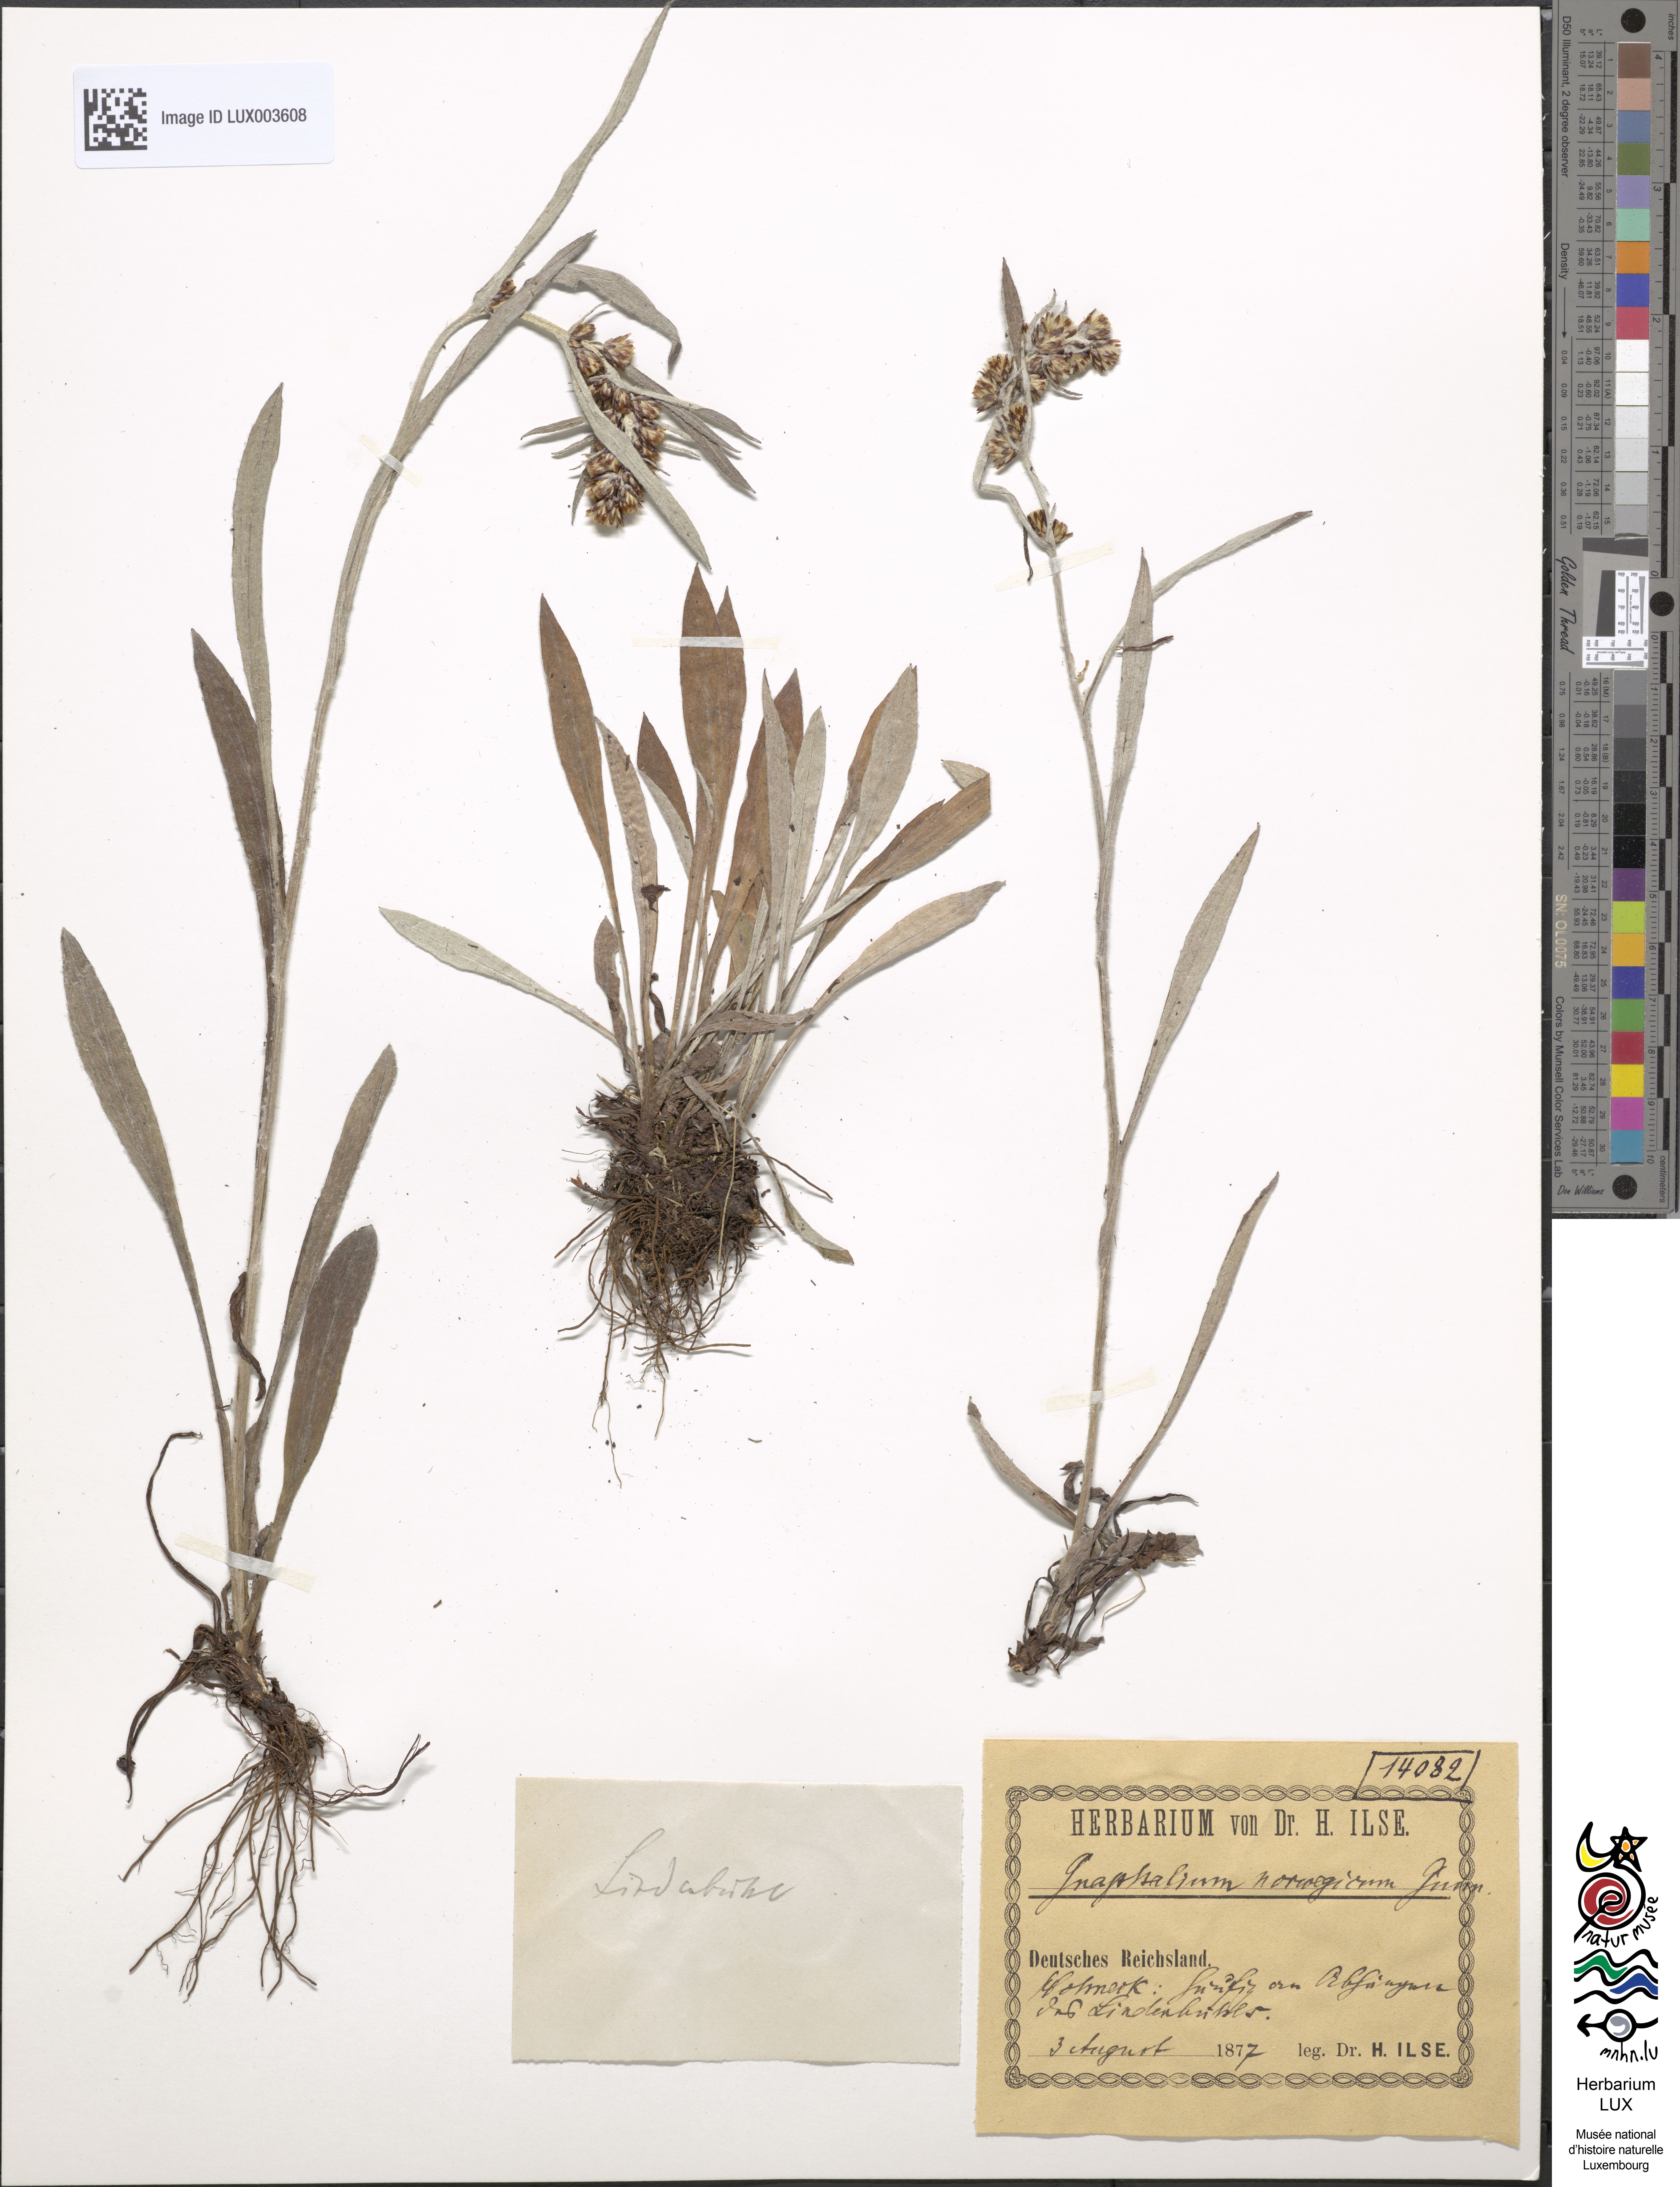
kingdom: Plantae
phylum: Tracheophyta
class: Magnoliopsida
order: Asterales
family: Asteraceae
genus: Omalotheca
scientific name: Omalotheca norvegica
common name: Norwegian arctic-cudweed
